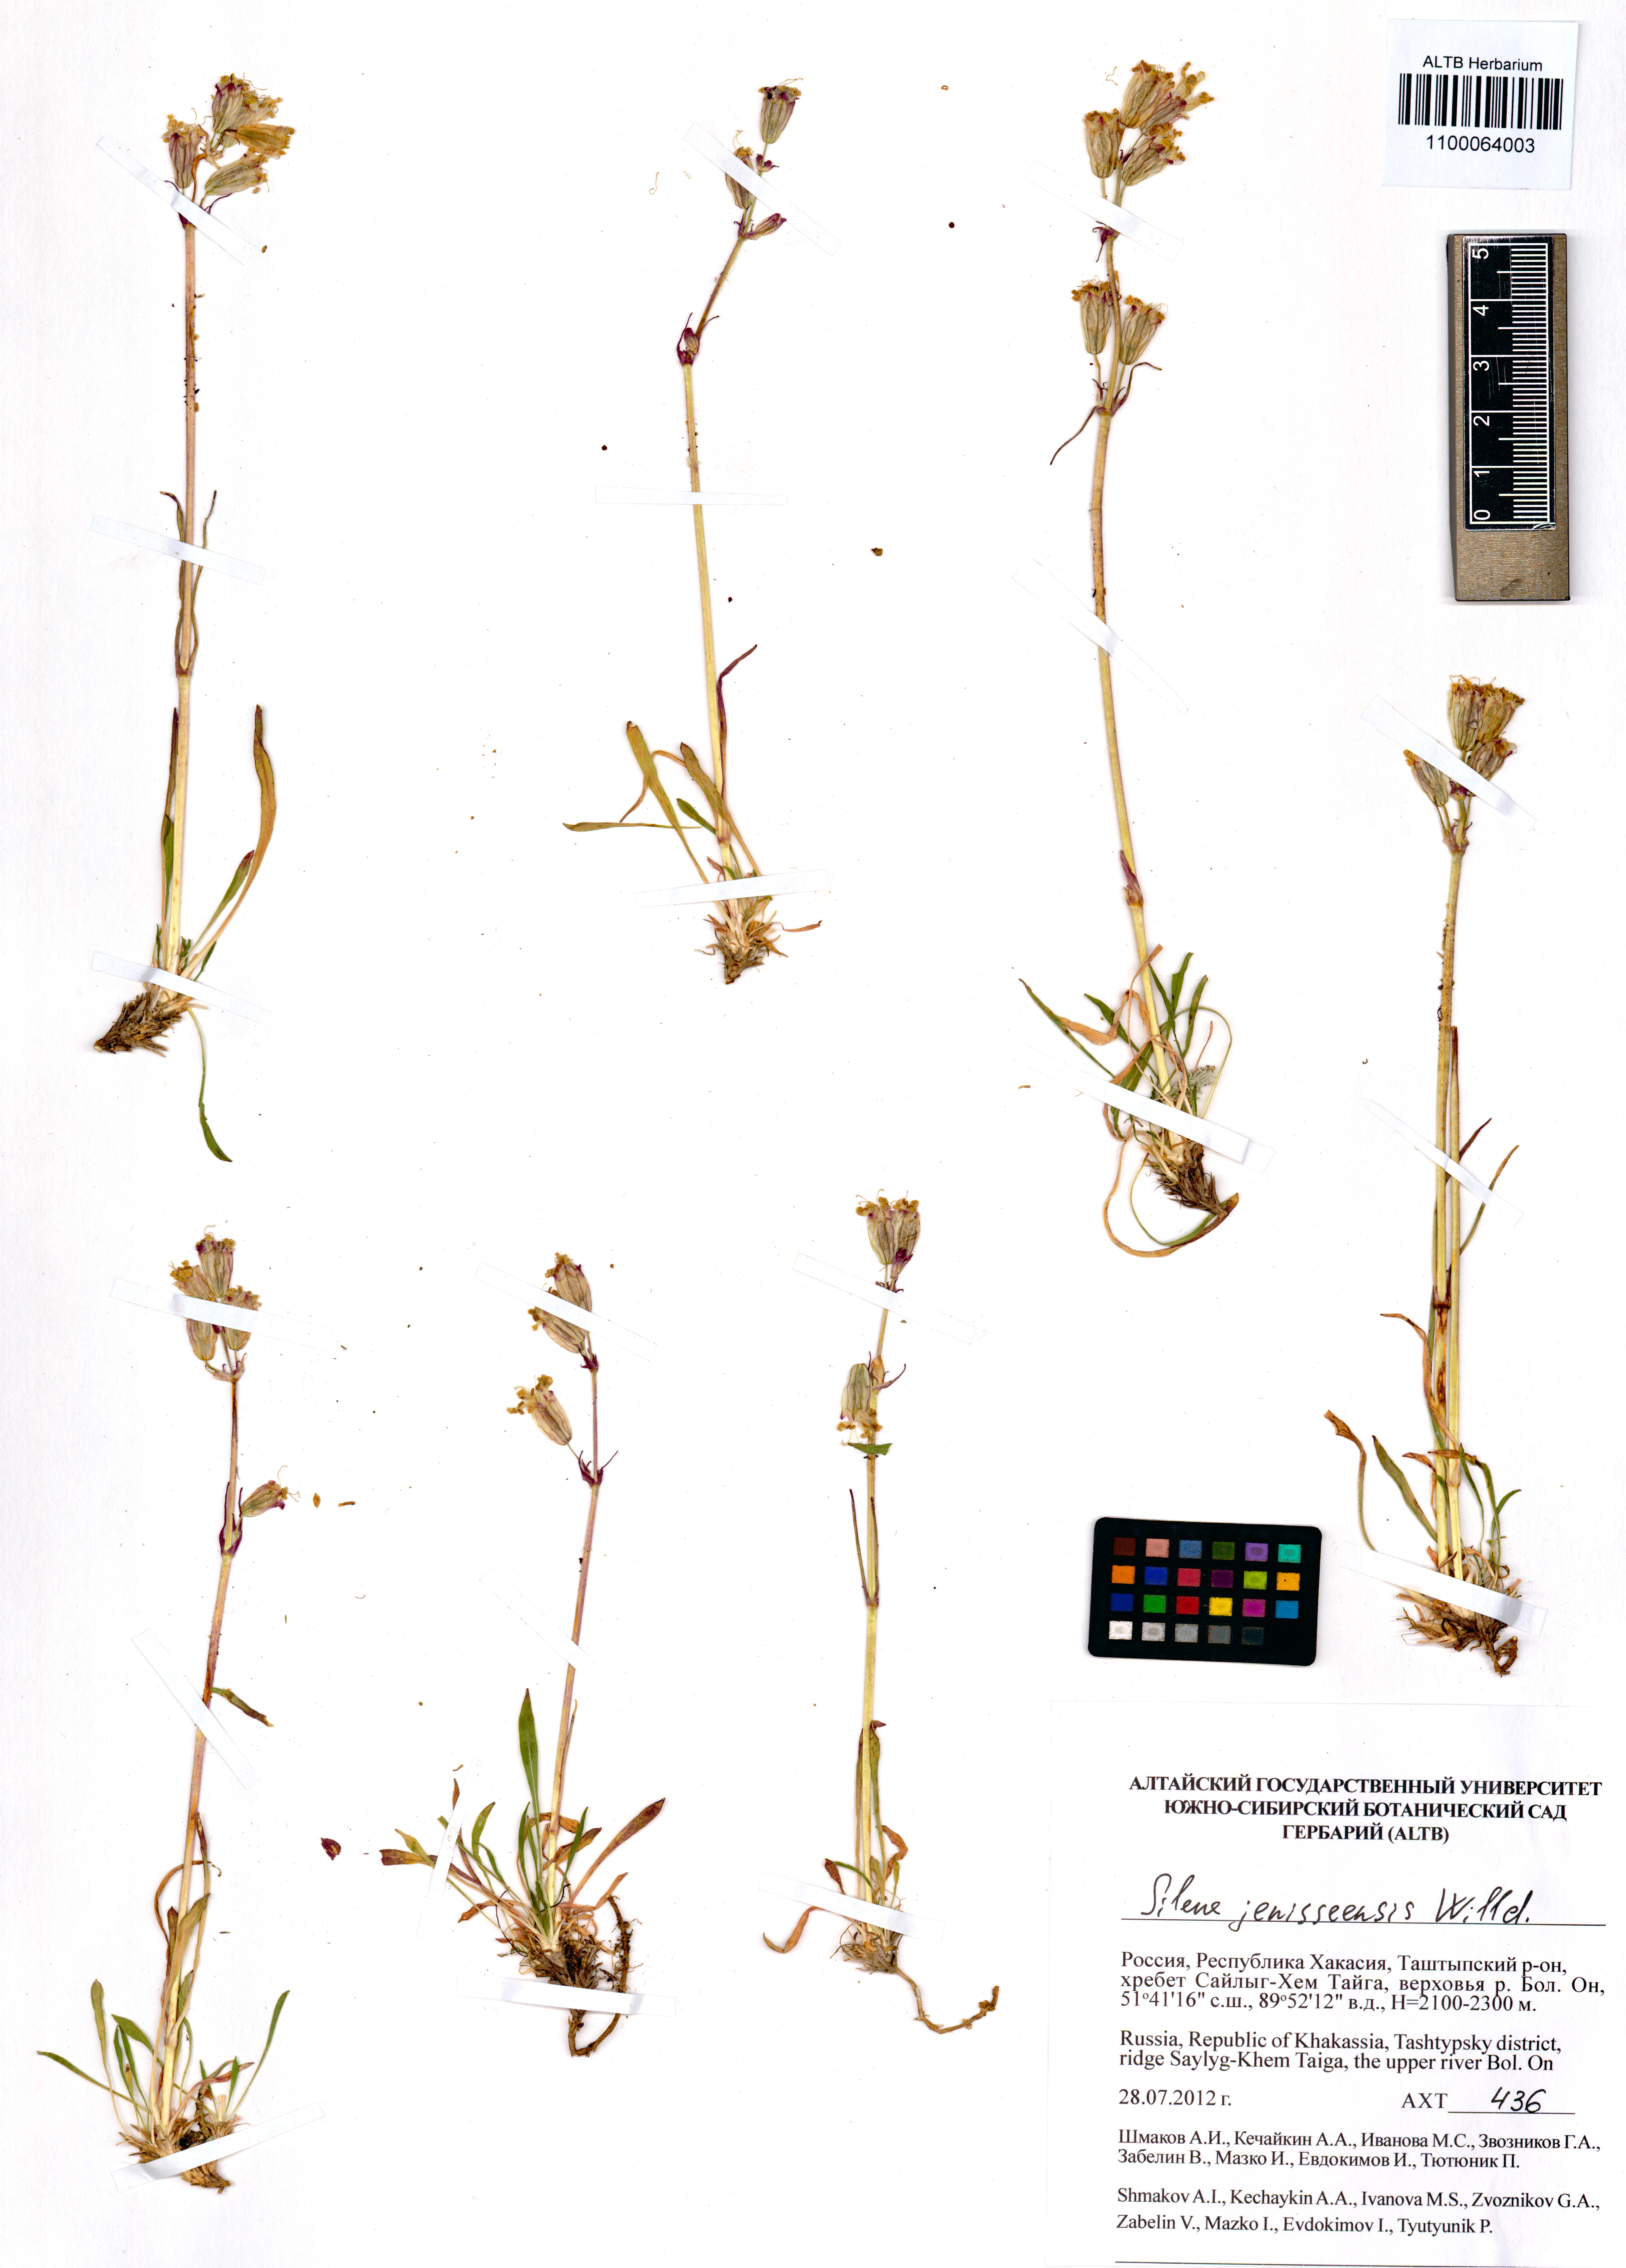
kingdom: Plantae
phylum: Tracheophyta
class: Magnoliopsida
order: Caryophyllales
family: Caryophyllaceae
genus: Silene
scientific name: Silene jeniseensis
